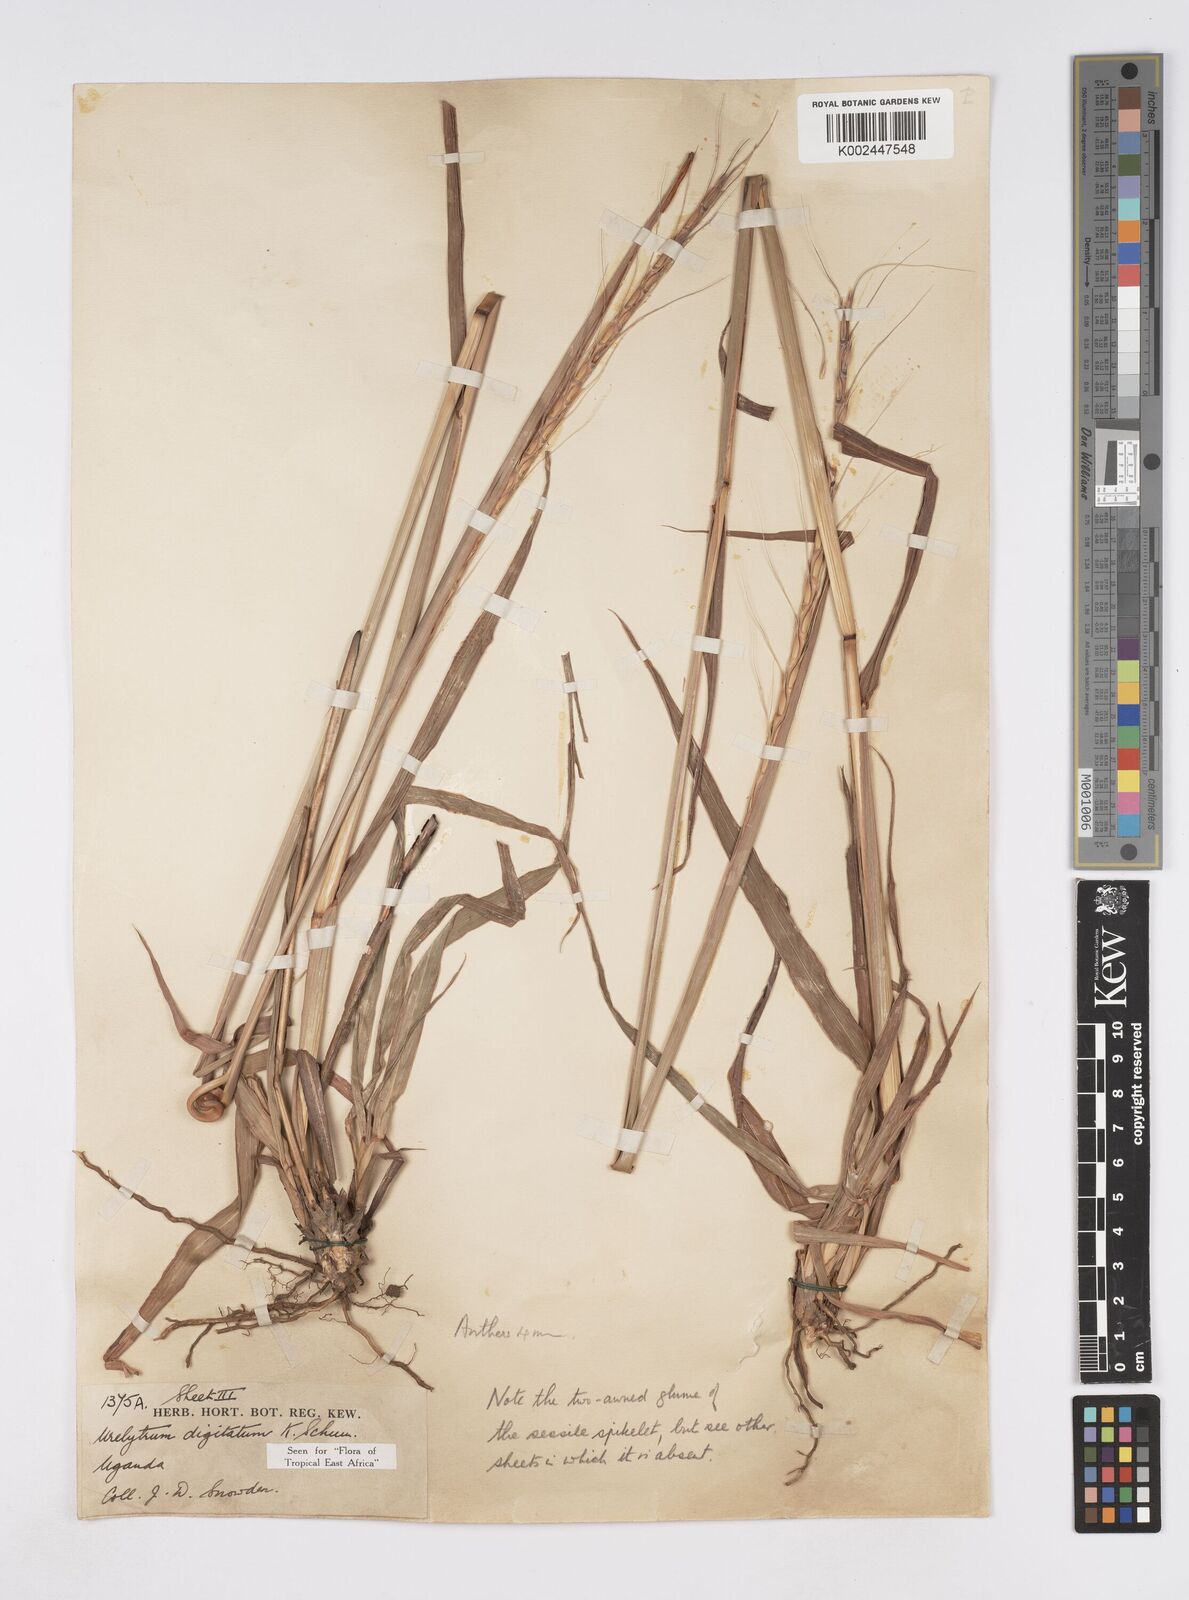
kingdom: Plantae
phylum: Tracheophyta
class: Liliopsida
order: Poales
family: Poaceae
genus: Urelytrum
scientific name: Urelytrum digitatum
